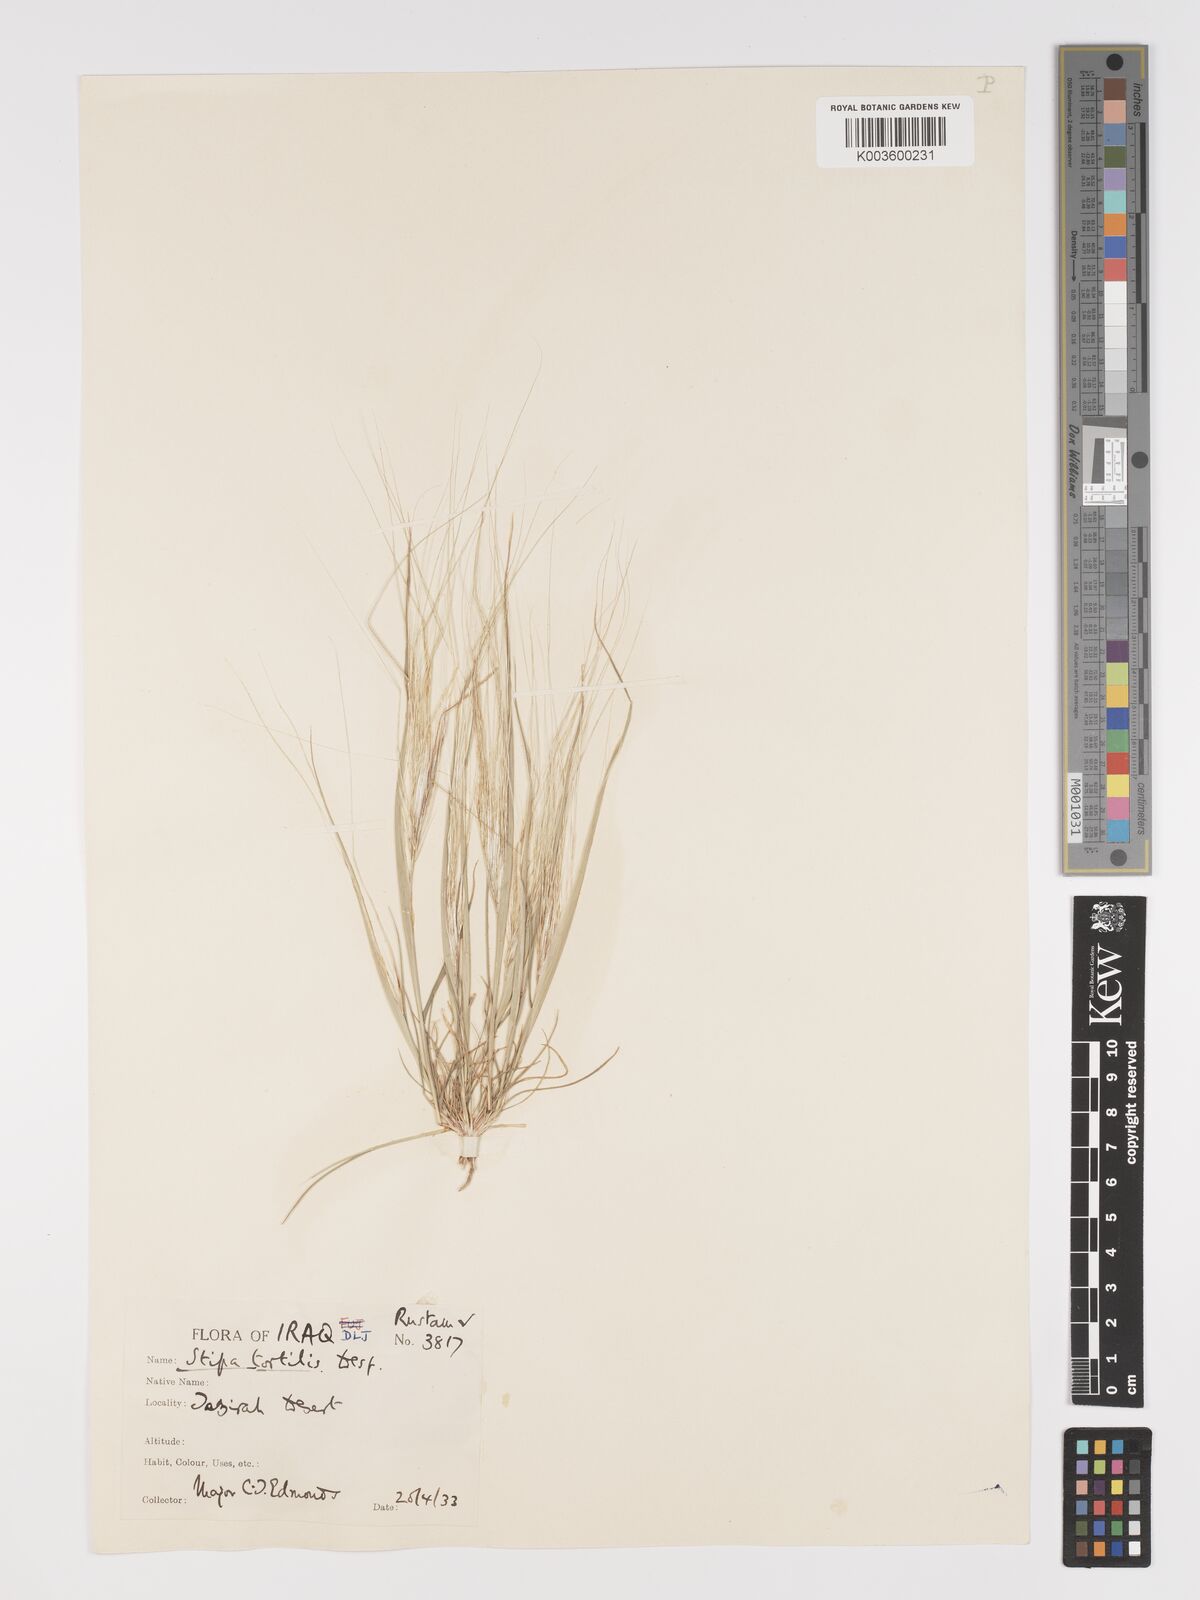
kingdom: Plantae
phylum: Tracheophyta
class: Liliopsida
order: Poales
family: Poaceae
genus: Stipellula
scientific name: Stipellula capensis
